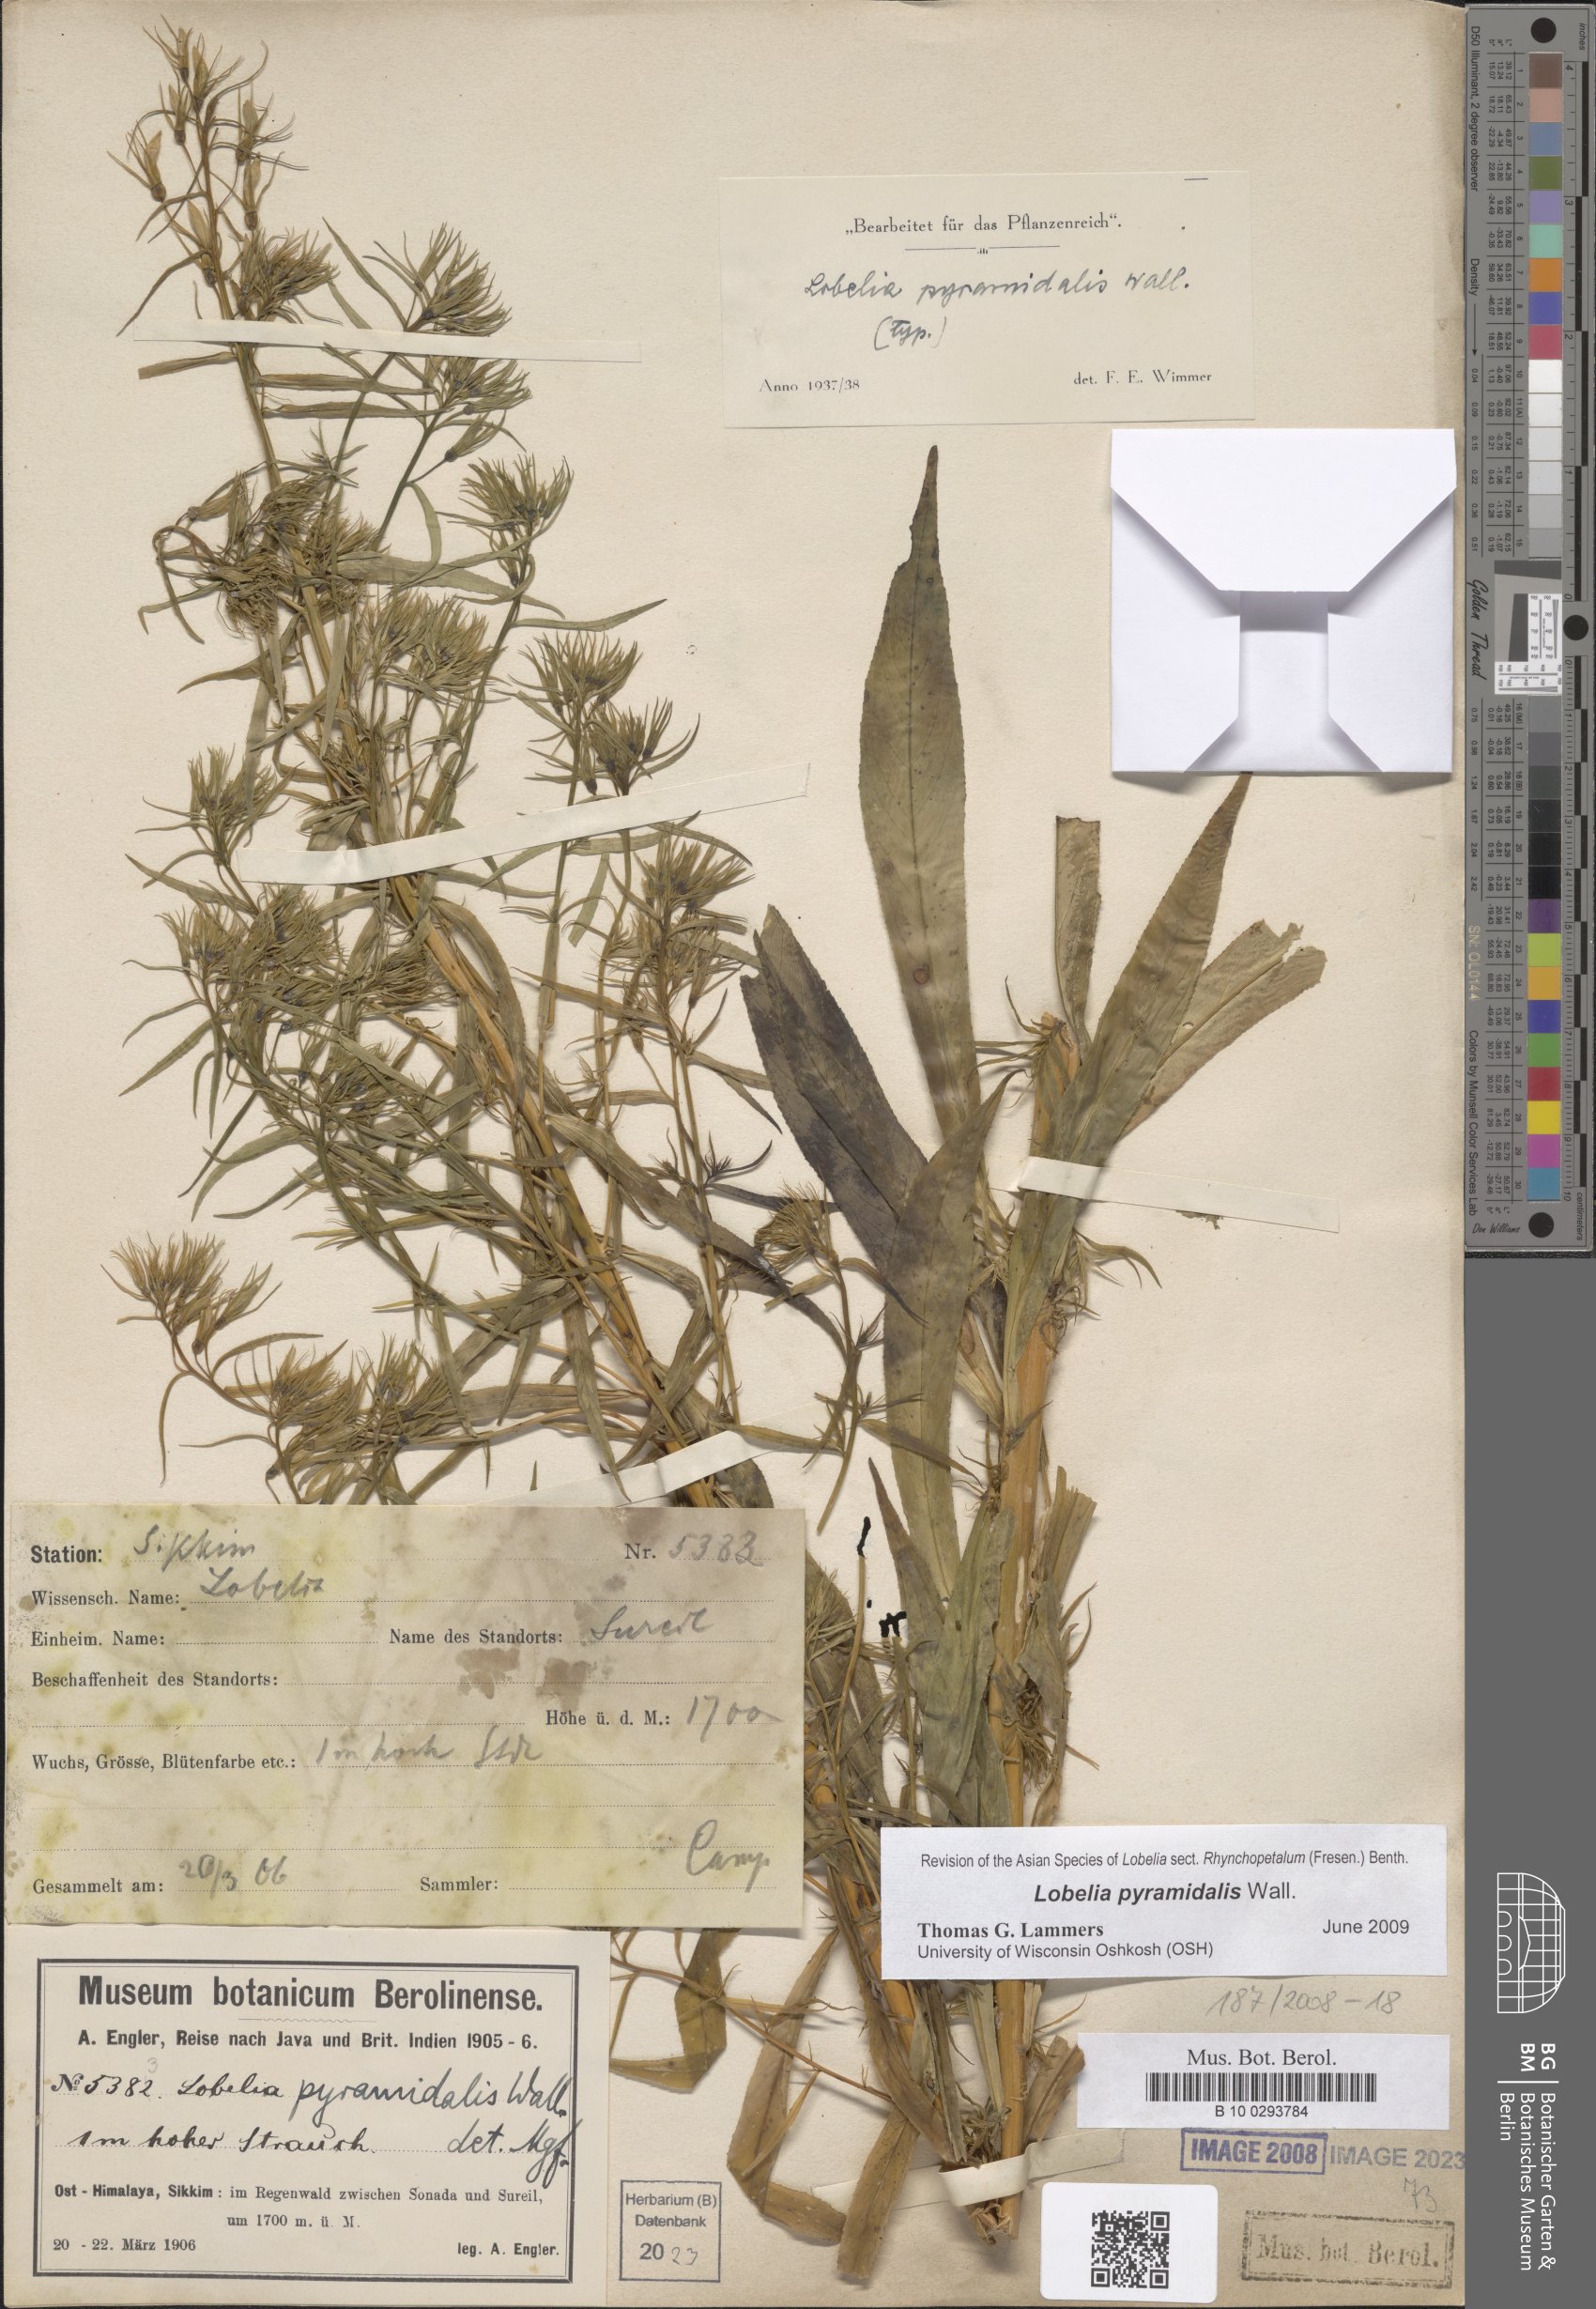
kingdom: Plantae
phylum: Tracheophyta
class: Magnoliopsida
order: Asterales
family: Campanulaceae
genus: Lobelia
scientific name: Lobelia pyramidalis
